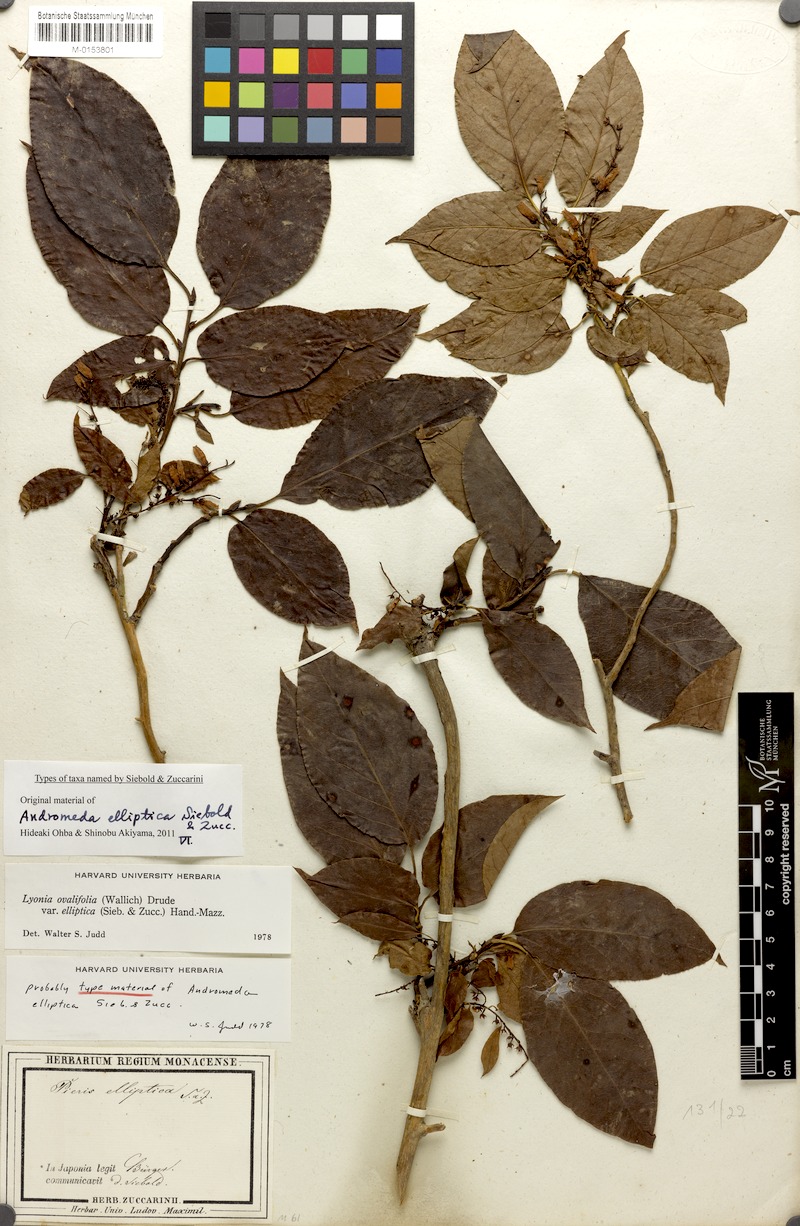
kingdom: Plantae
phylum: Tracheophyta
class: Magnoliopsida
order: Ericales
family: Ericaceae
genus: Lyonia
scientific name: Lyonia ovalifolia
